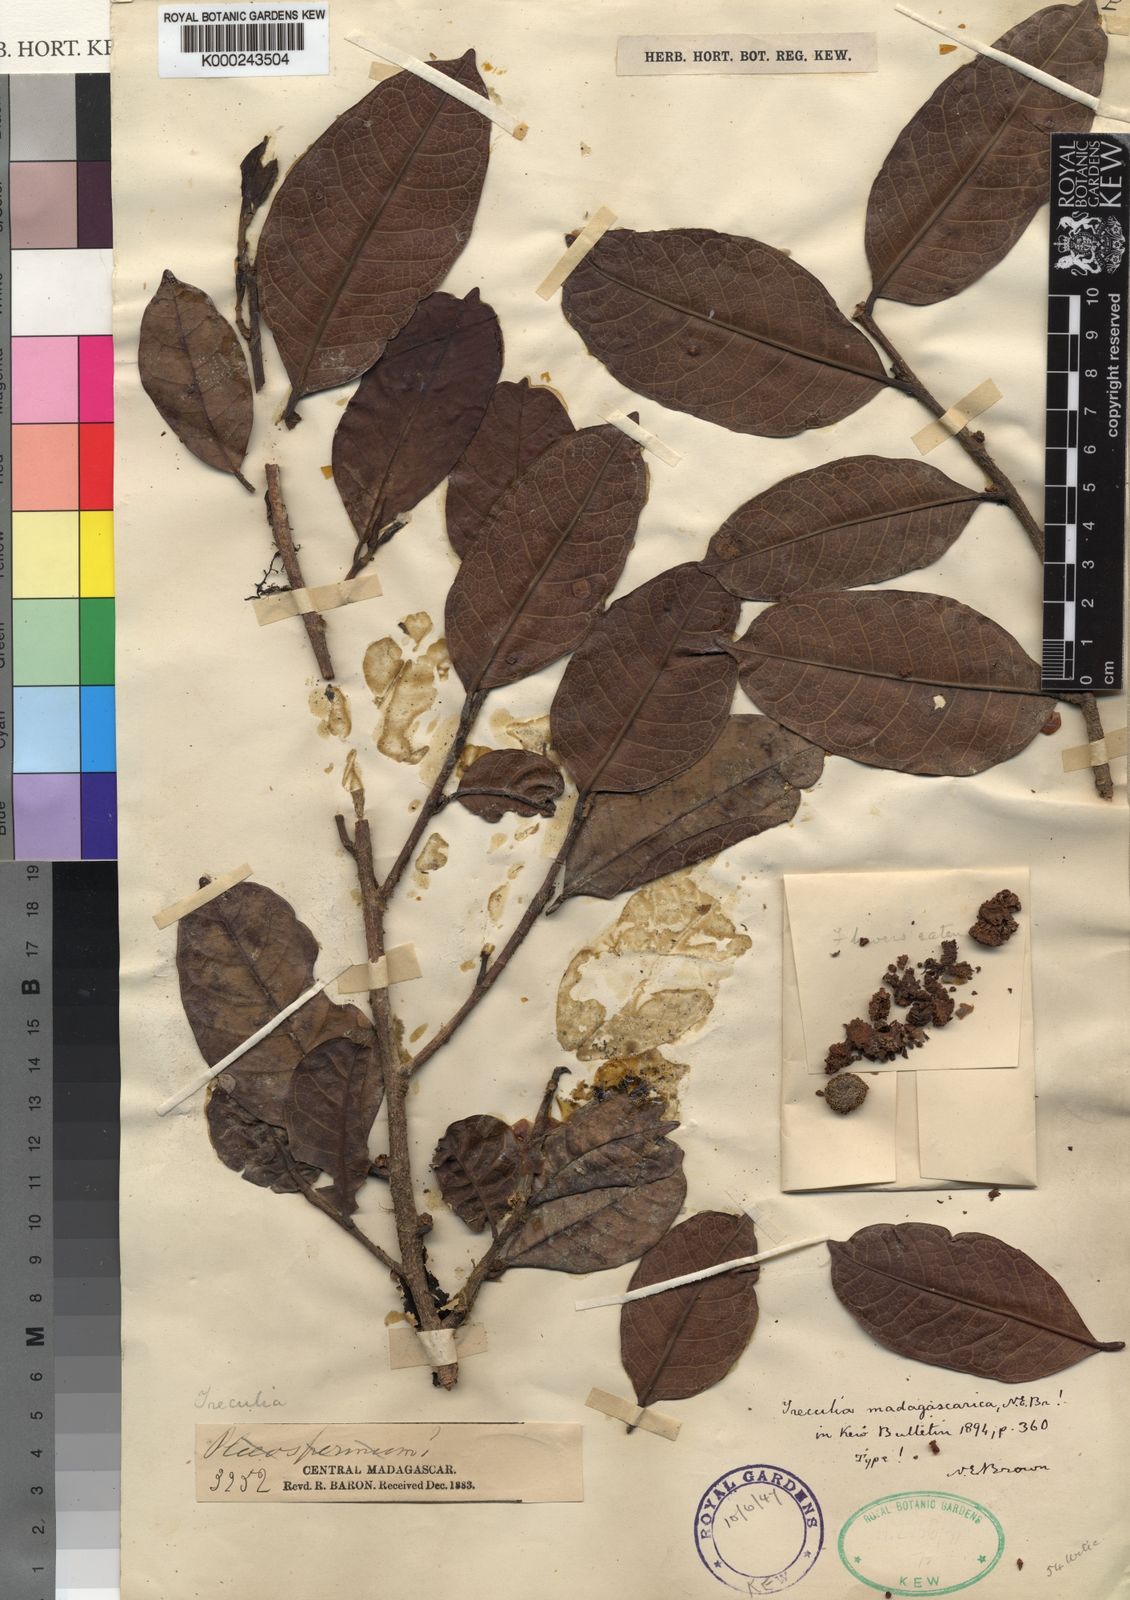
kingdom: Plantae
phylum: Tracheophyta
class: Magnoliopsida
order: Rosales
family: Moraceae
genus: Treculia
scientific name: Treculia madagascarica
